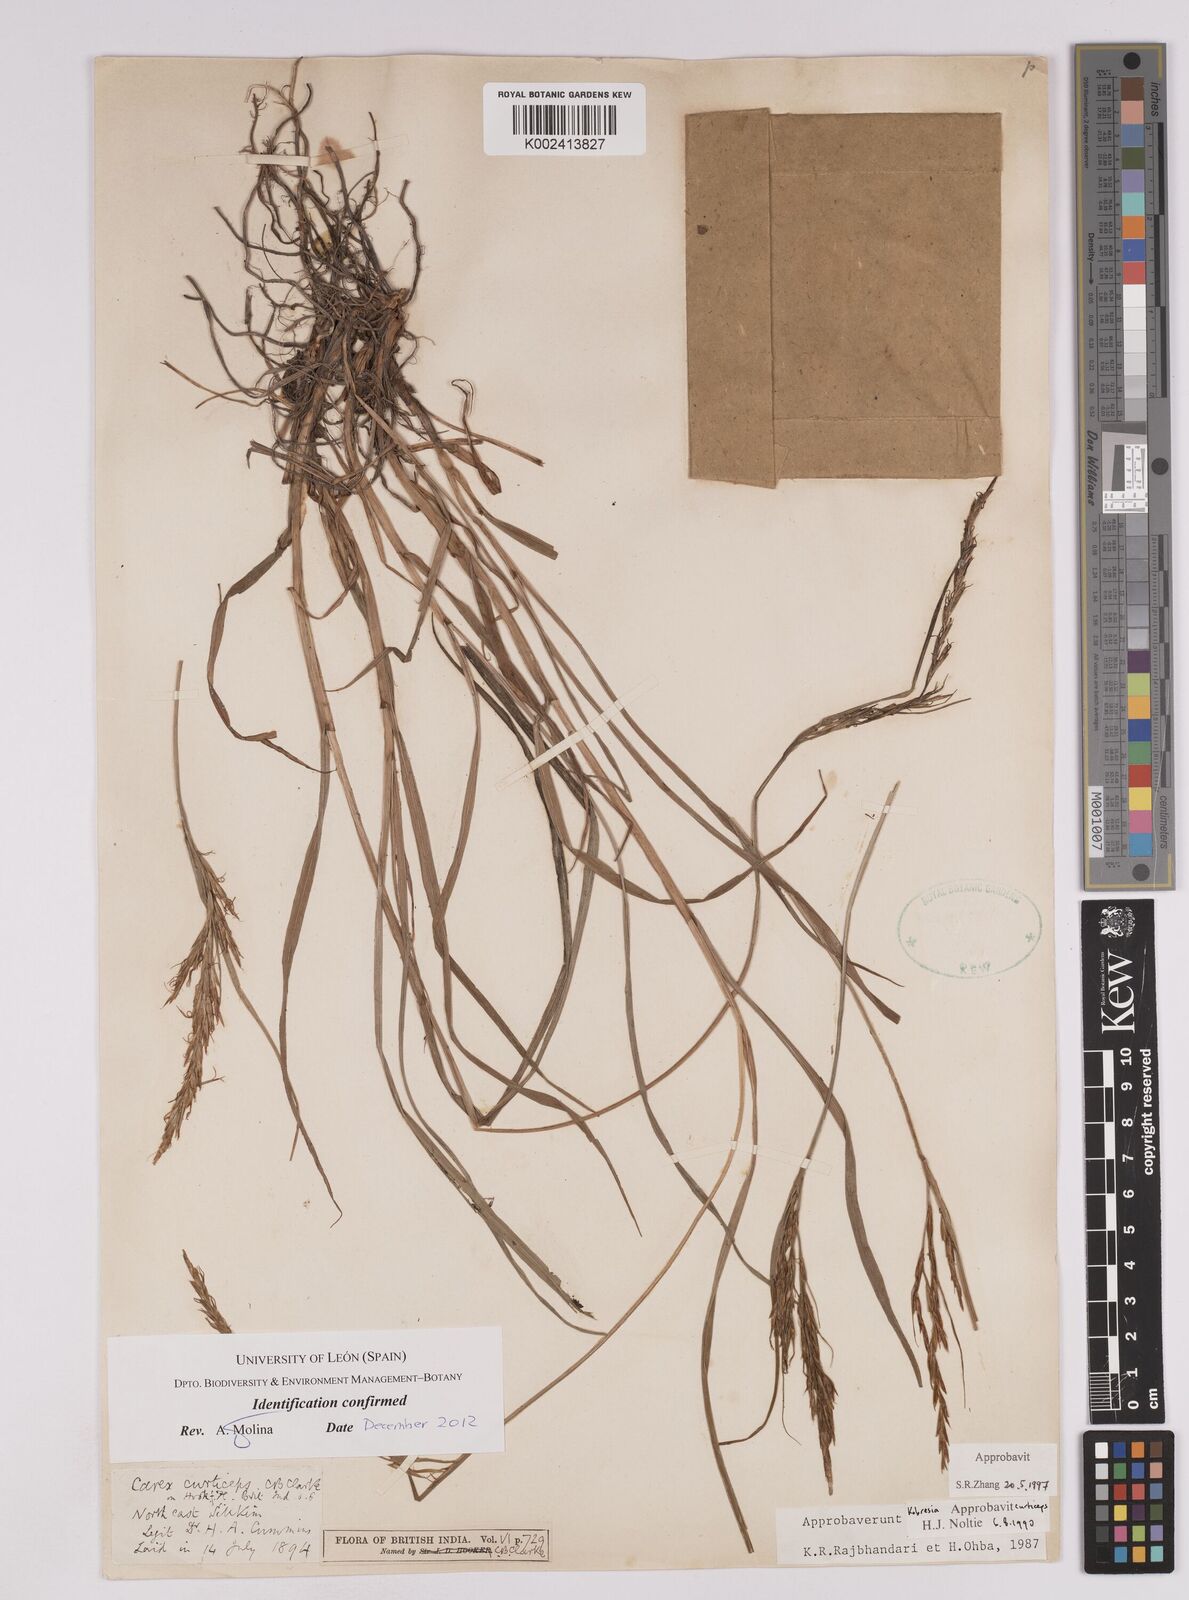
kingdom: Plantae
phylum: Tracheophyta
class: Liliopsida
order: Poales
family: Cyperaceae
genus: Carex
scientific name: Carex curticeps
